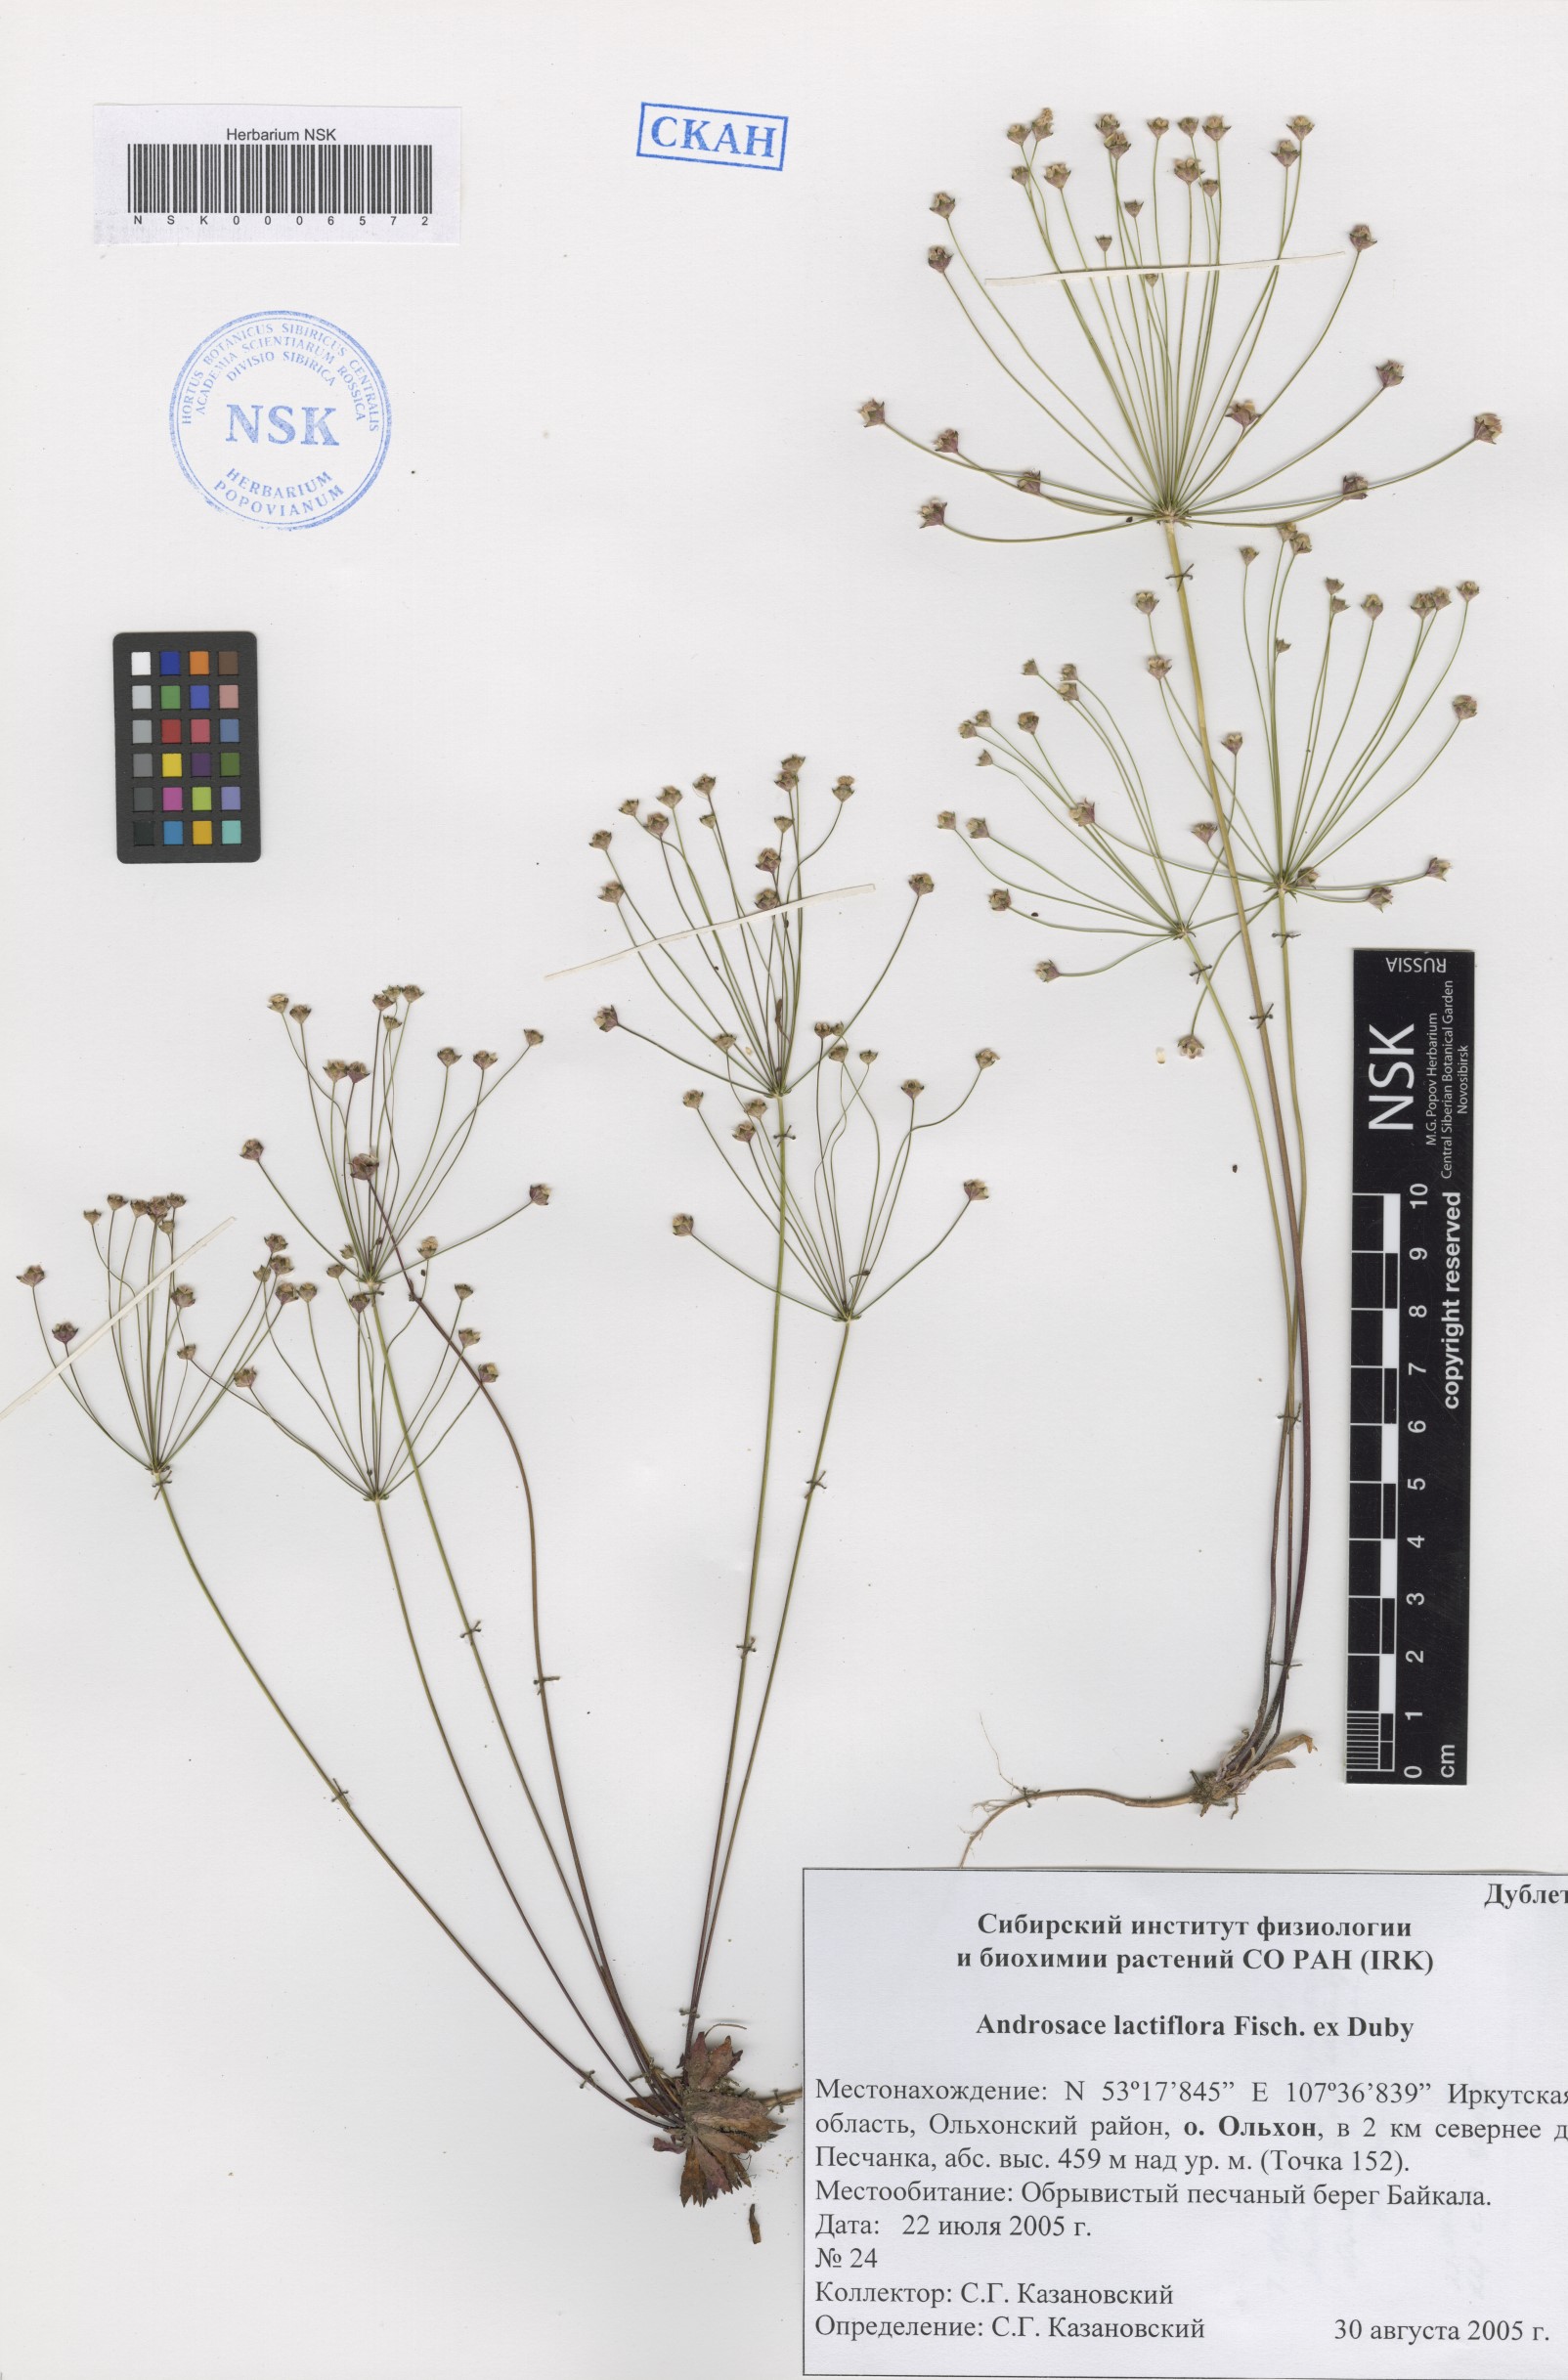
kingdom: Plantae
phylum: Tracheophyta
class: Magnoliopsida
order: Ericales
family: Primulaceae
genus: Androsace
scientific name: Androsace lactiflora
